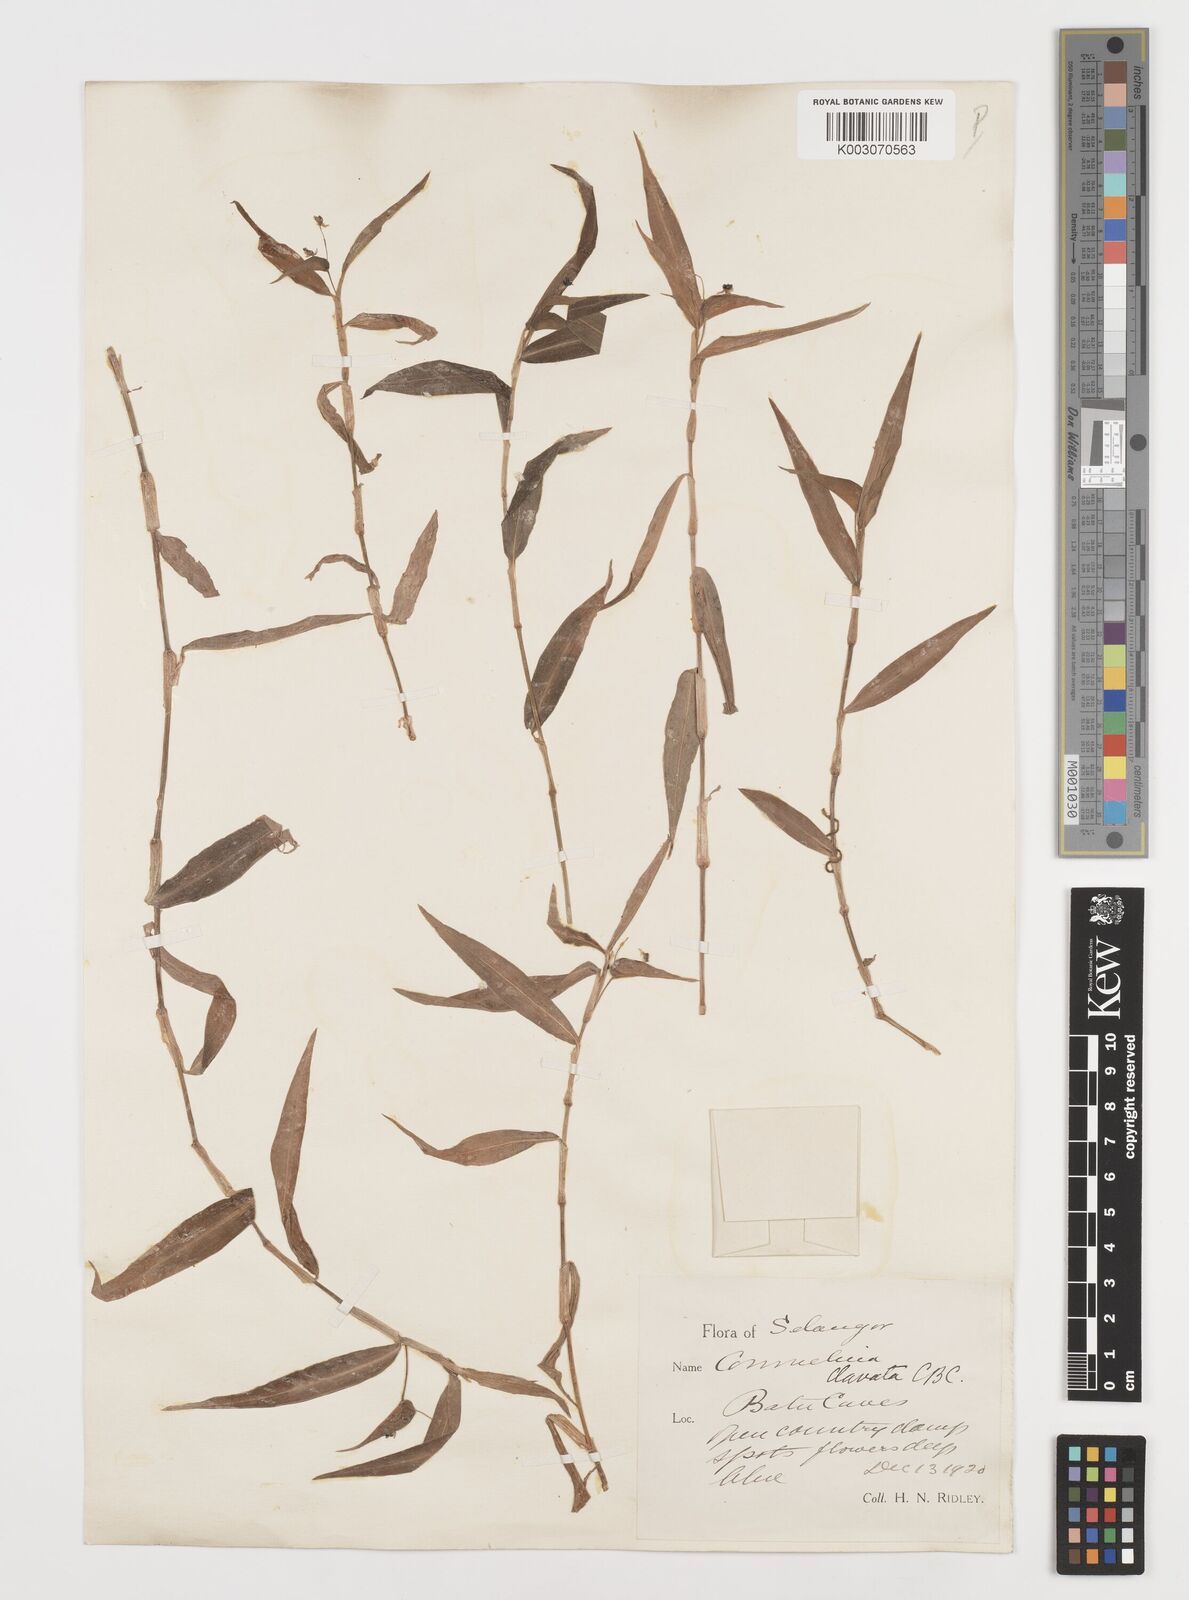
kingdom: Plantae
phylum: Tracheophyta
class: Liliopsida
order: Commelinales
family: Commelinaceae
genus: Commelina
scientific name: Commelina clavata
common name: Willow leaved dayflower
